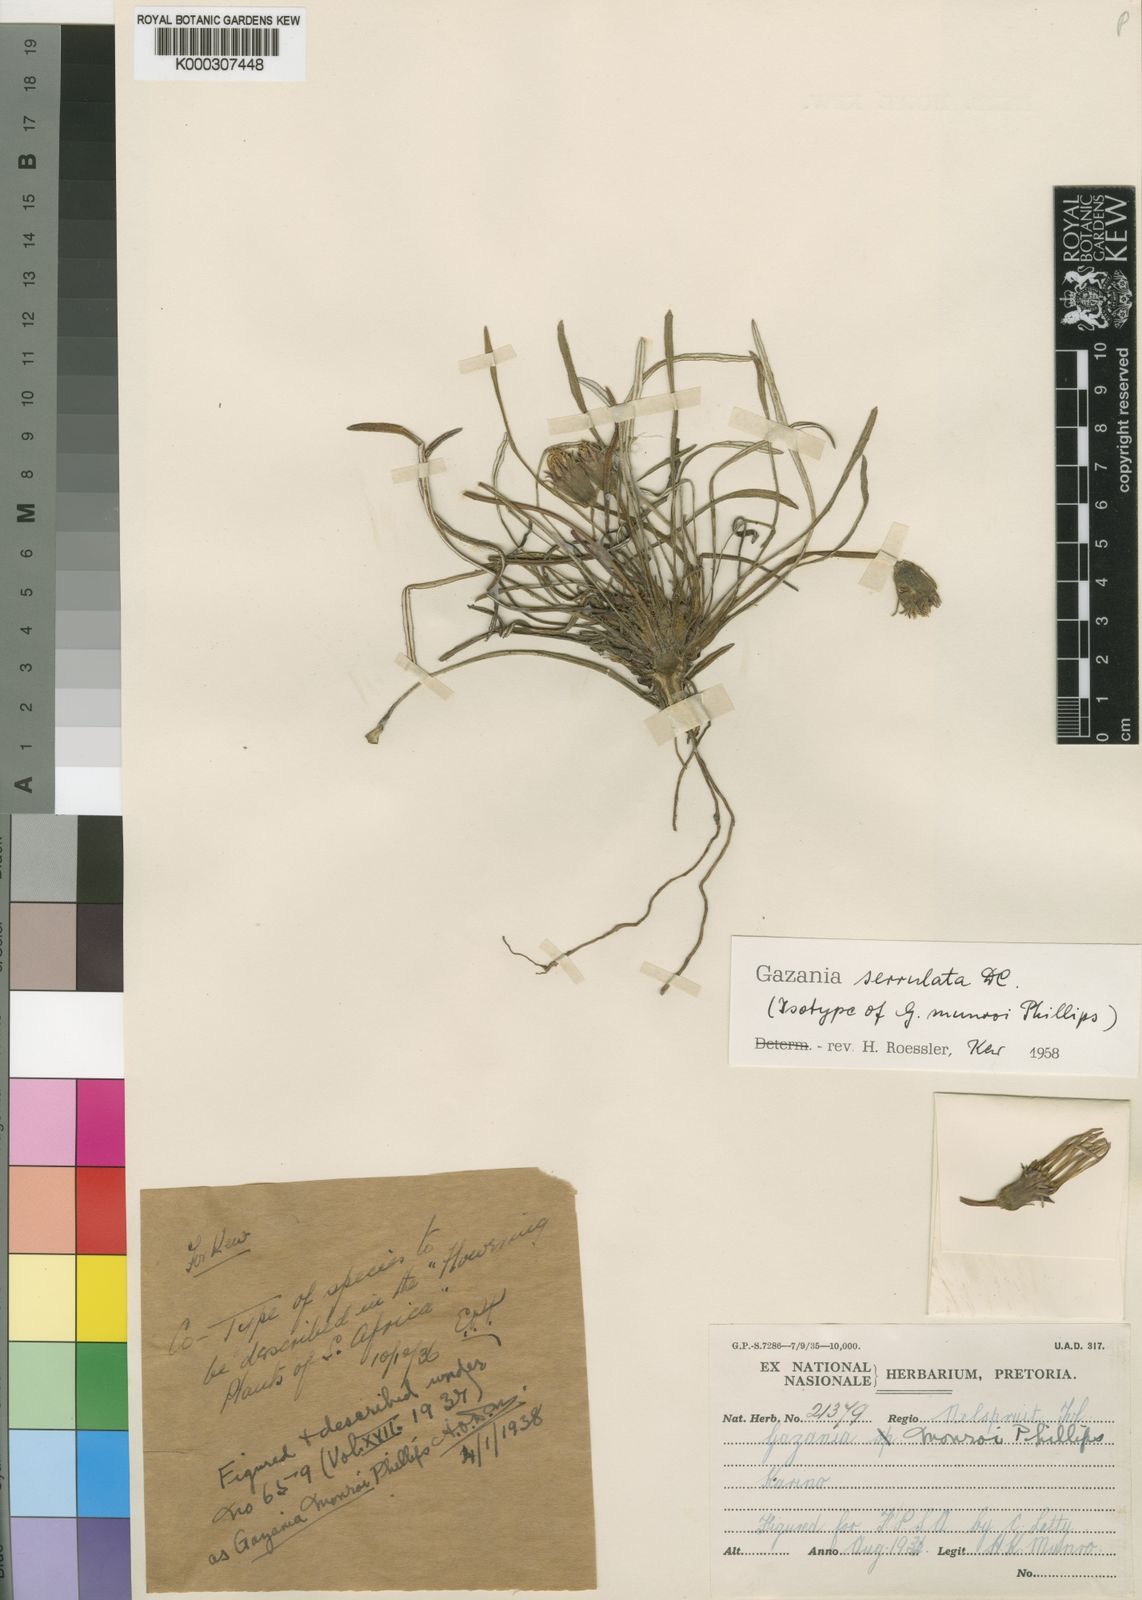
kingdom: Plantae
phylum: Tracheophyta
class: Magnoliopsida
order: Asterales
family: Asteraceae
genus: Gazania
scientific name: Gazania krebsiana
